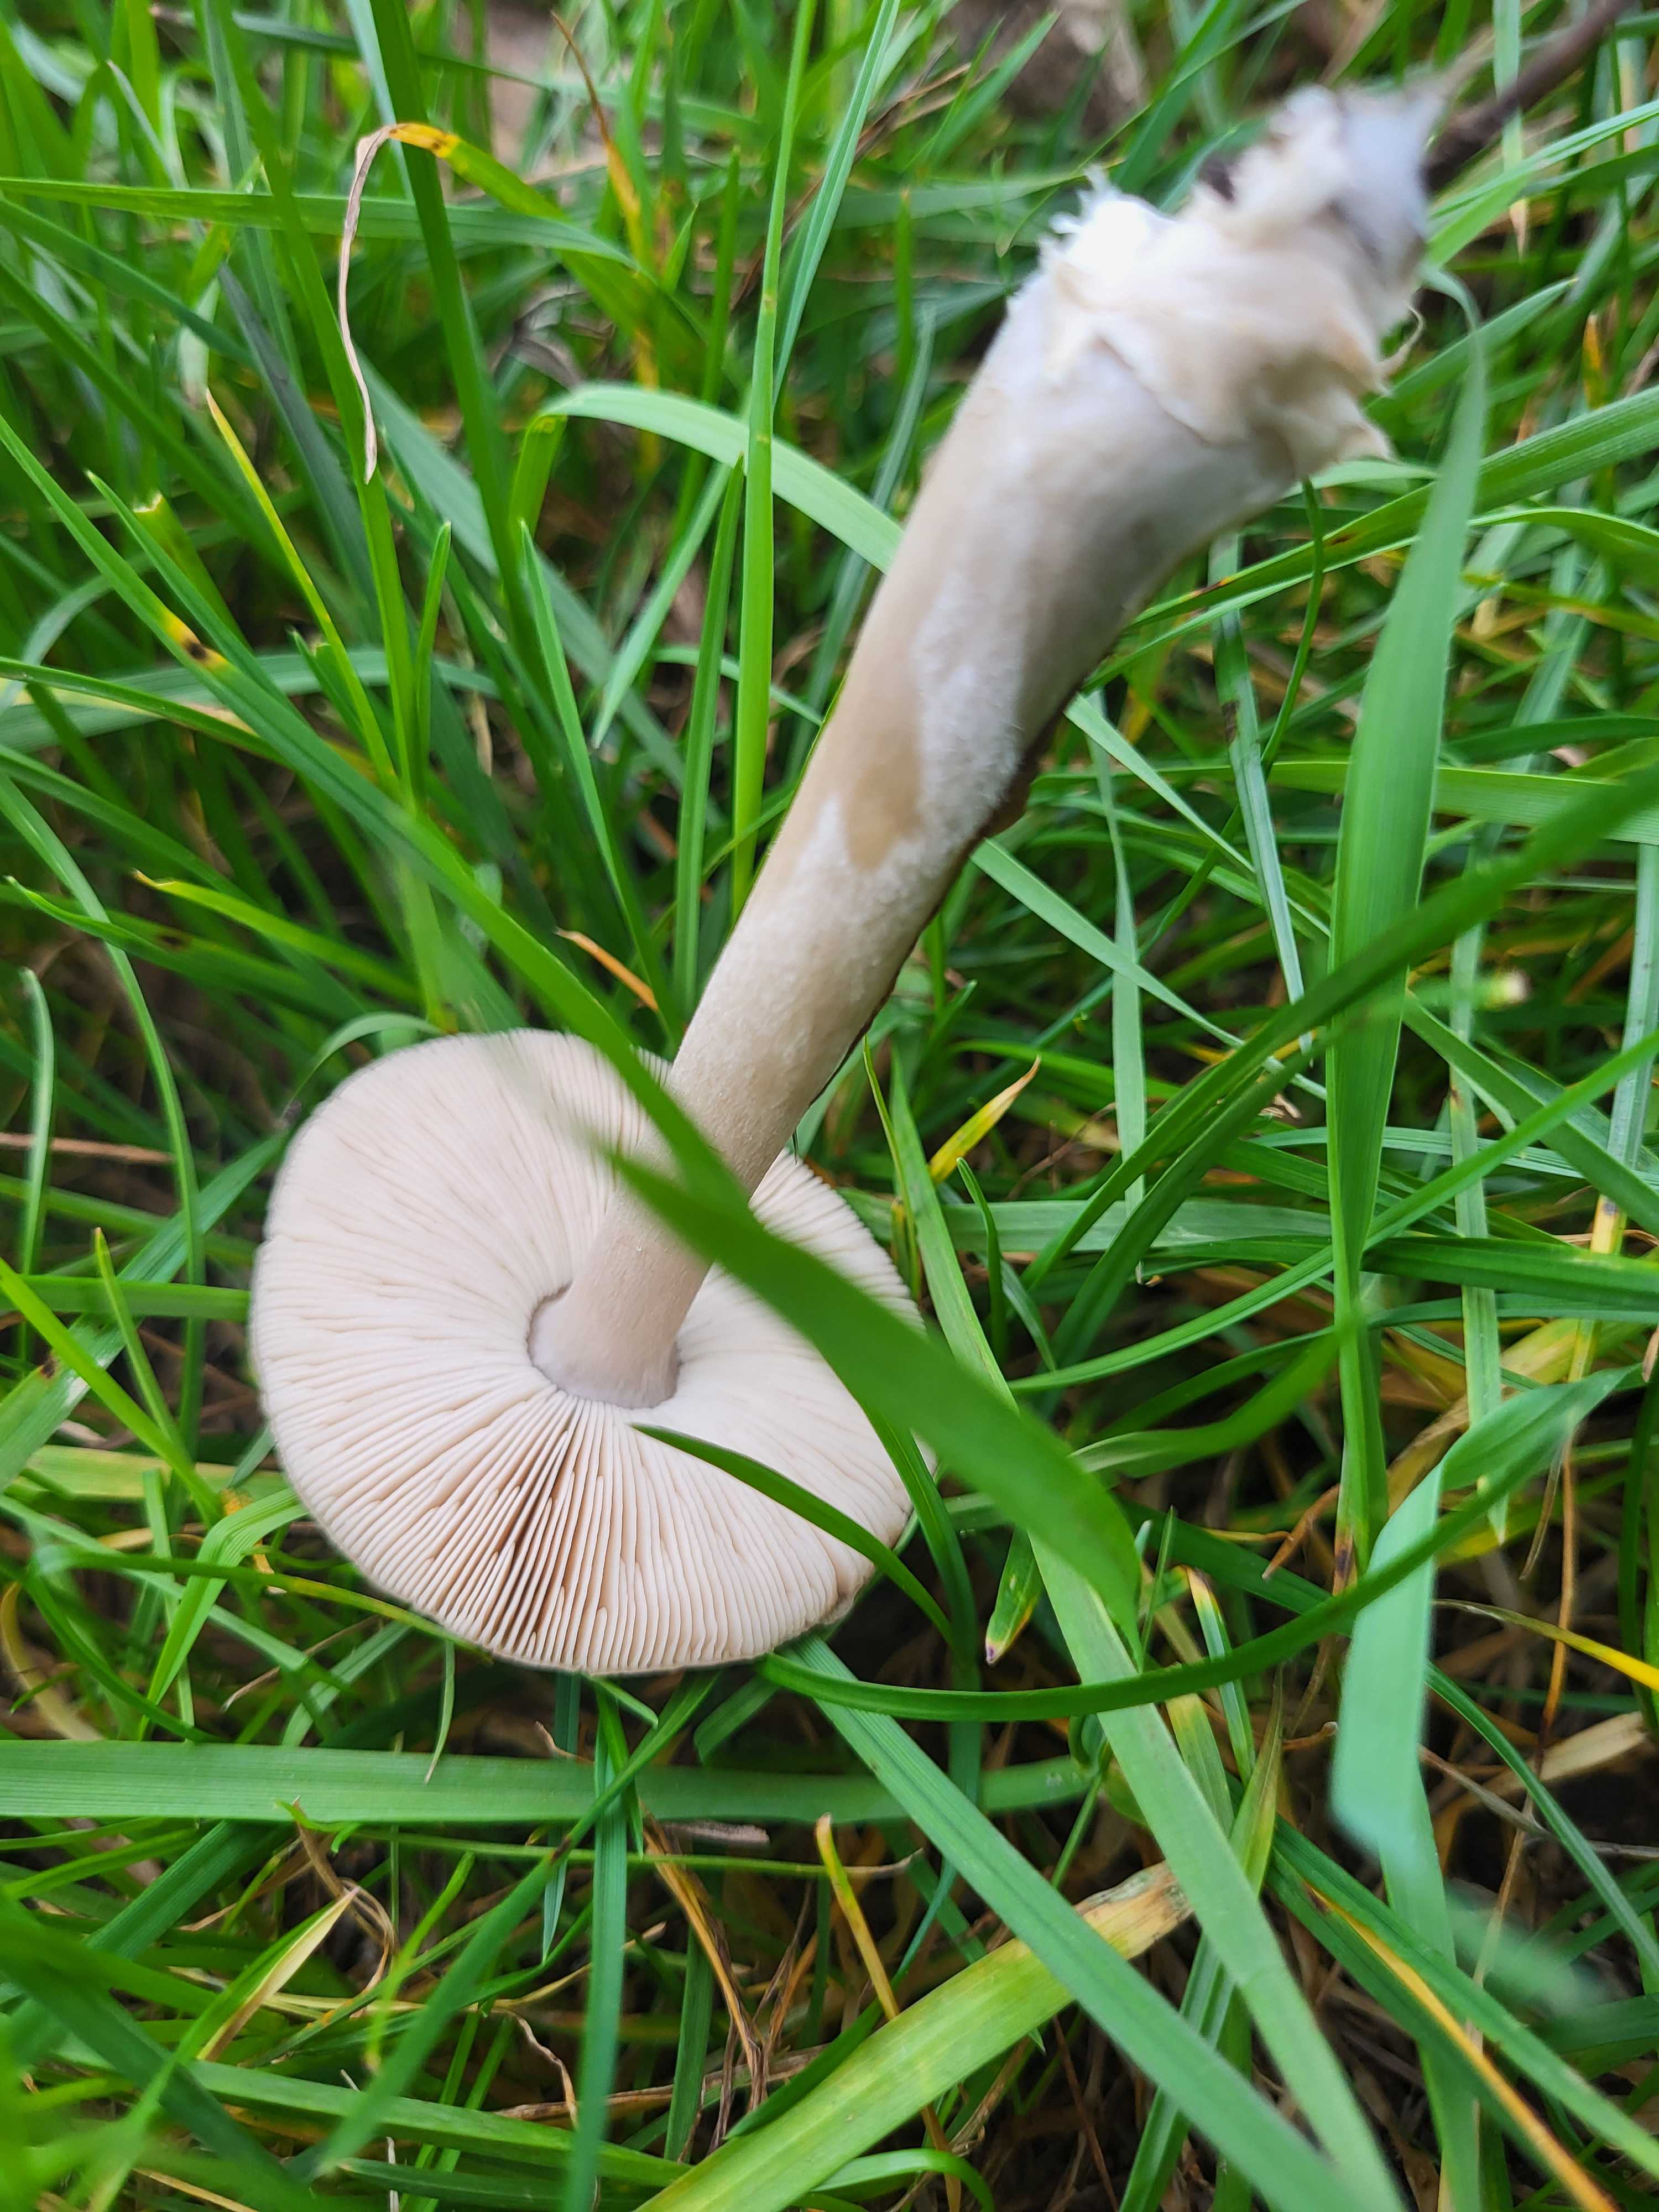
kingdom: Fungi
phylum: Basidiomycota
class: Agaricomycetes
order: Agaricales
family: Pluteaceae
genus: Volvopluteus
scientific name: Volvopluteus gloiocephalus
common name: høj posesvamp
